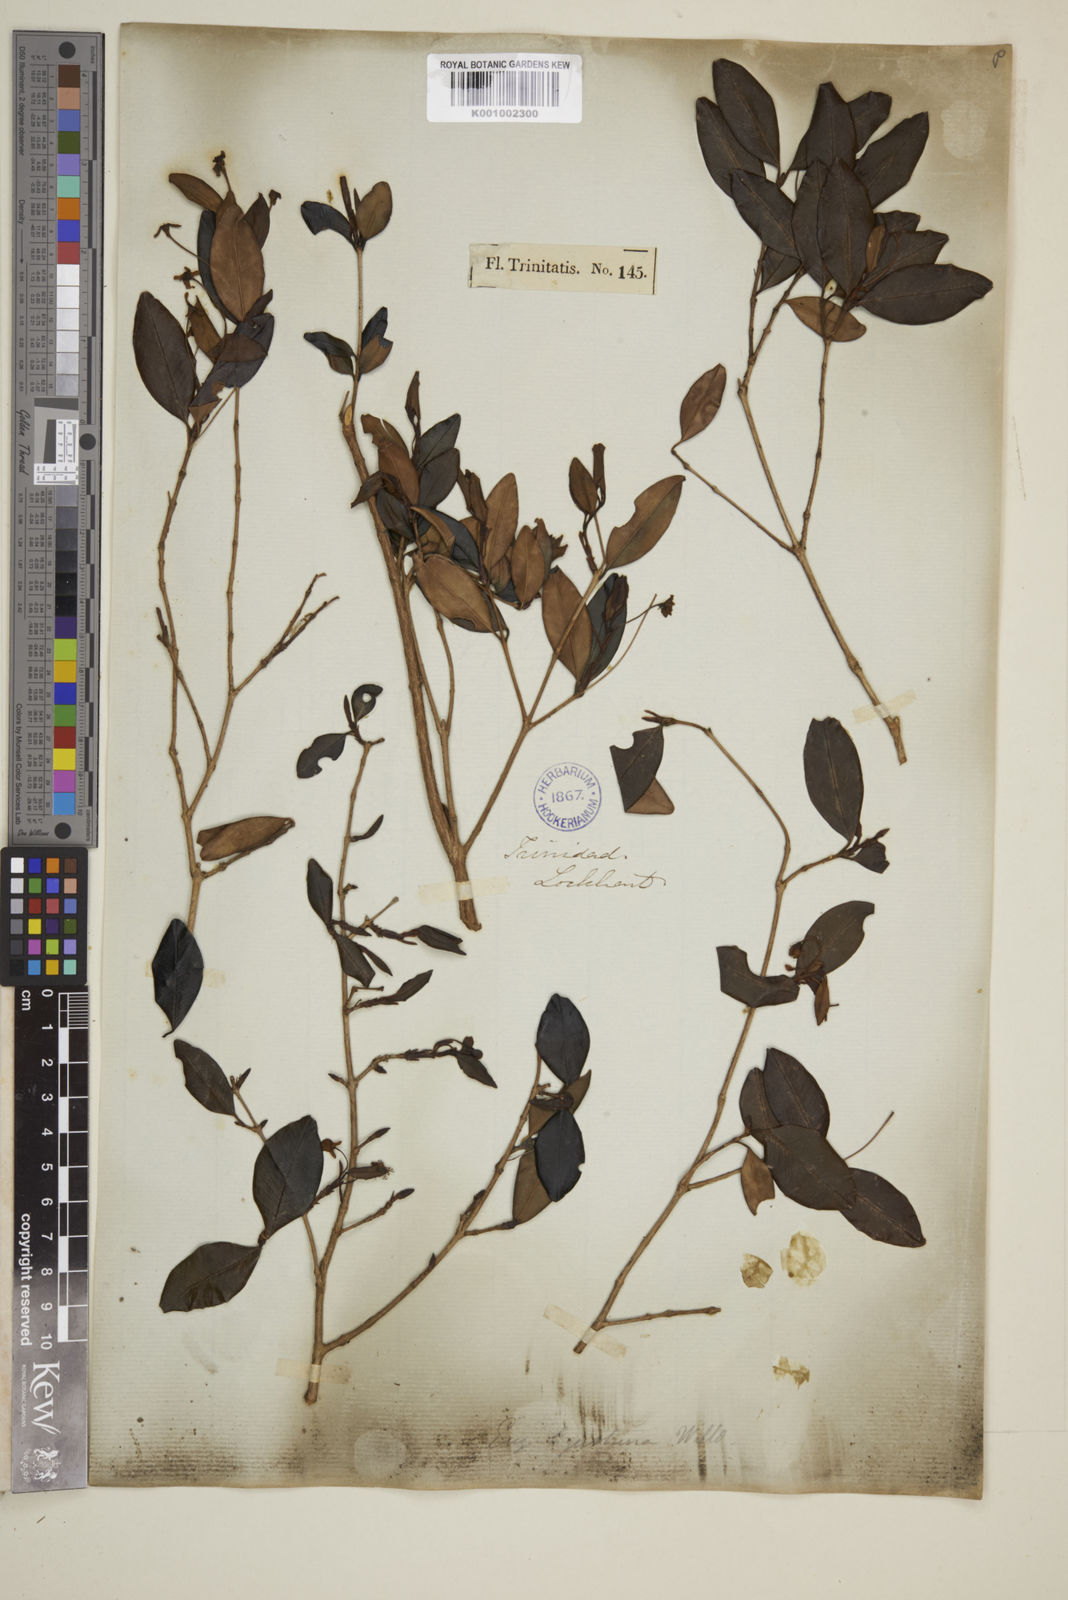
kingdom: Plantae
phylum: Tracheophyta
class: Magnoliopsida
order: Myrtales
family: Myrtaceae
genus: Eugenia
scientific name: Eugenia ligustrina
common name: Privet stopper
